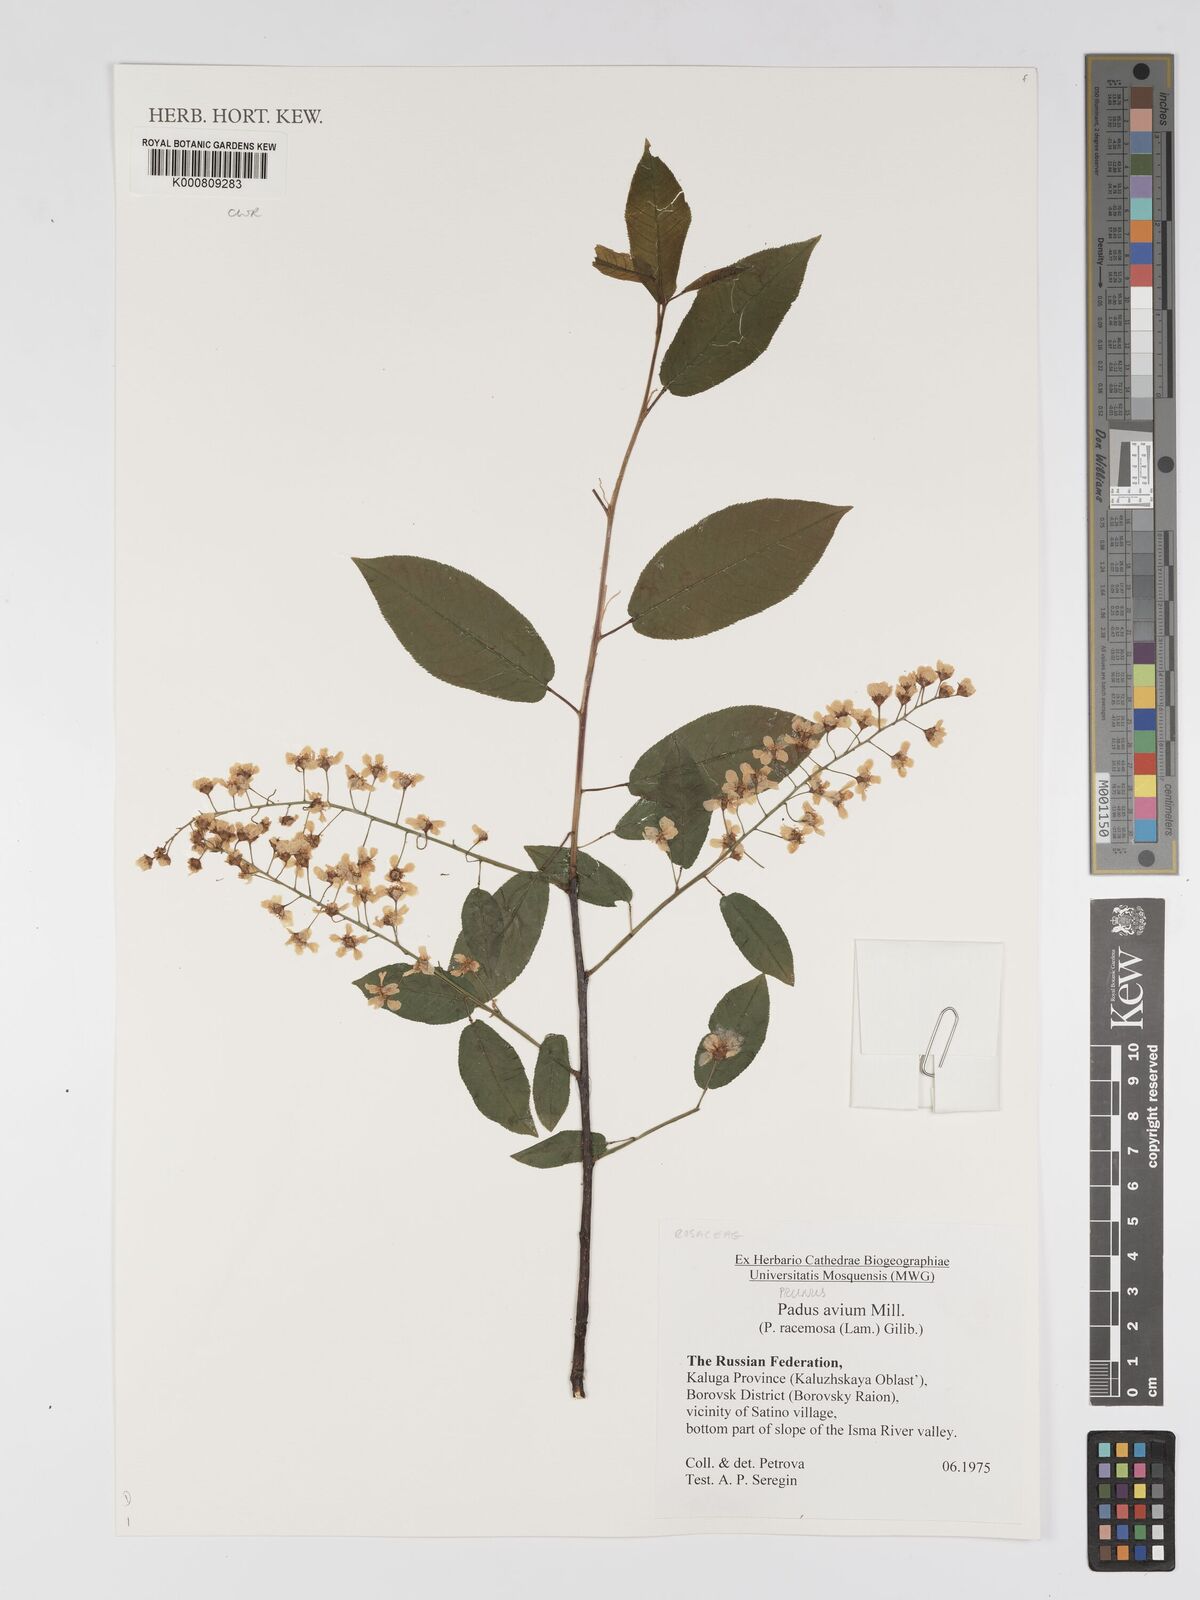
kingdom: Plantae
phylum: Tracheophyta
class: Magnoliopsida
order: Rosales
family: Rosaceae
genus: Prunus
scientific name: Prunus padus
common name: Bird cherry
